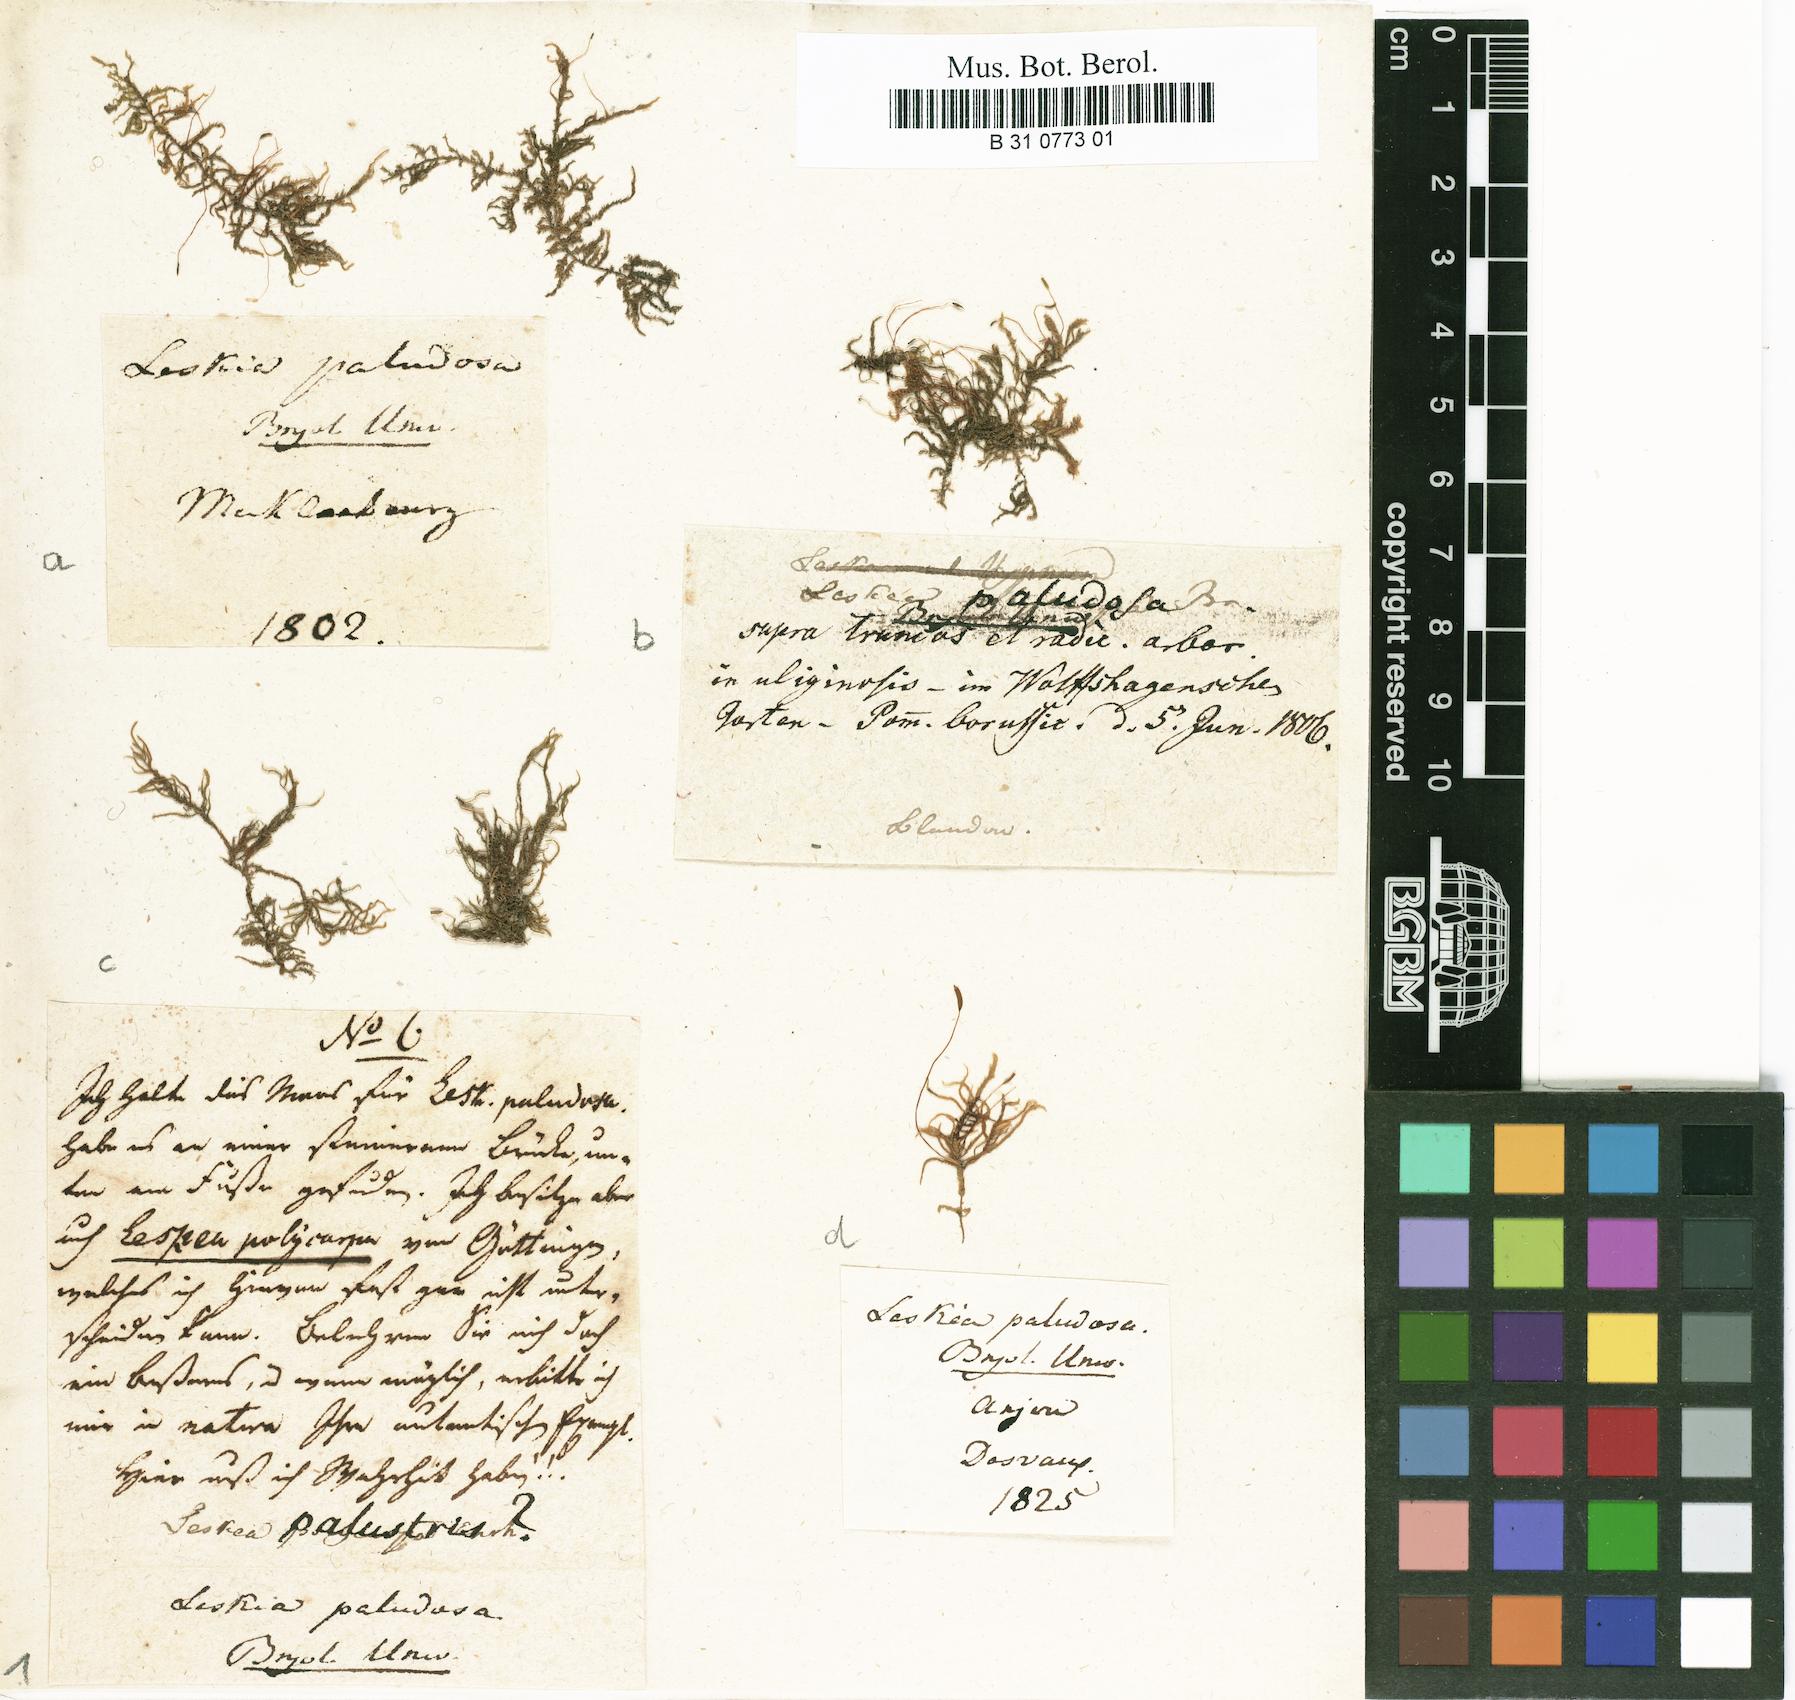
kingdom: Plantae
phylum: Bryophyta
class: Bryopsida
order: Hypnales
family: Leskeaceae
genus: Leskea
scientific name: Leskea polycarpa
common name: Many-fruited leske's moss
